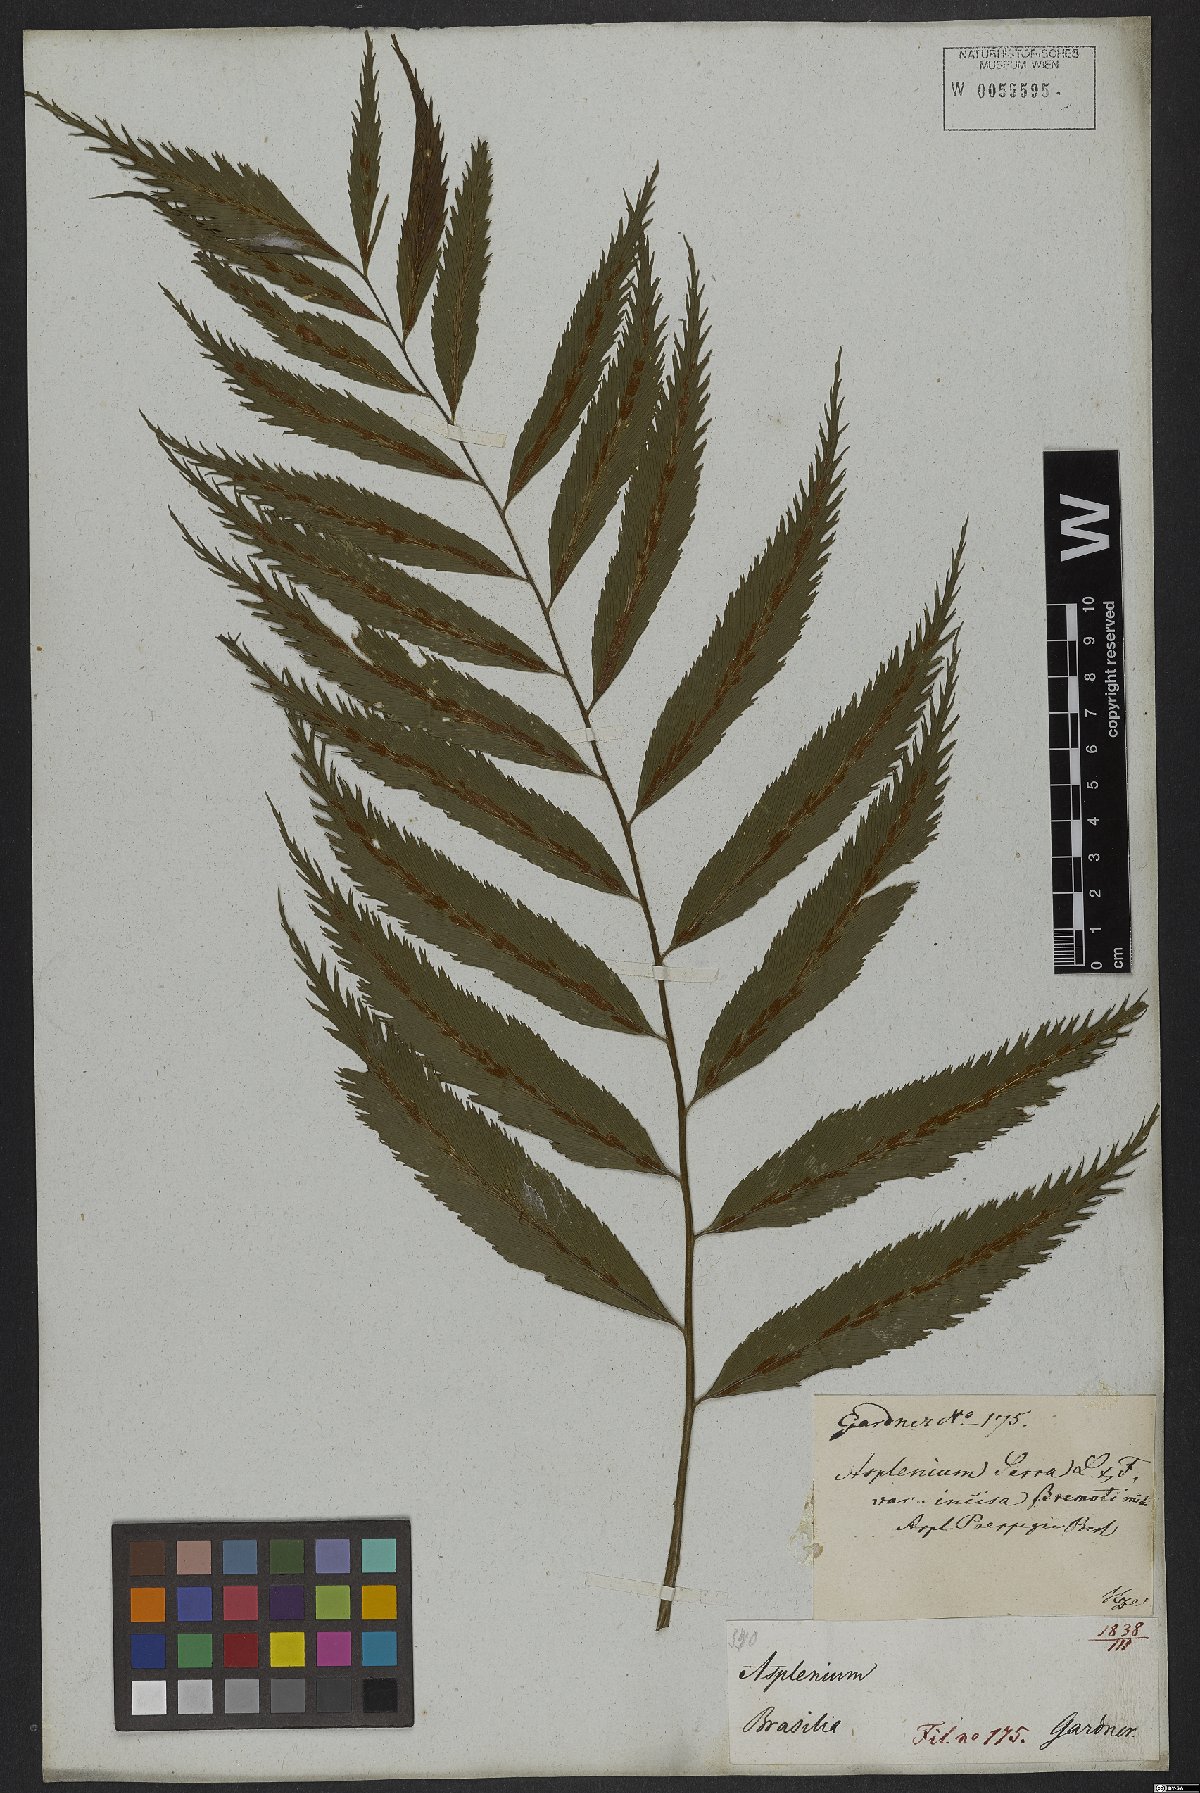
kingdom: Plantae
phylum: Tracheophyta
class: Polypodiopsida
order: Polypodiales
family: Aspleniaceae
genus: Asplenium
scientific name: Asplenium serra
